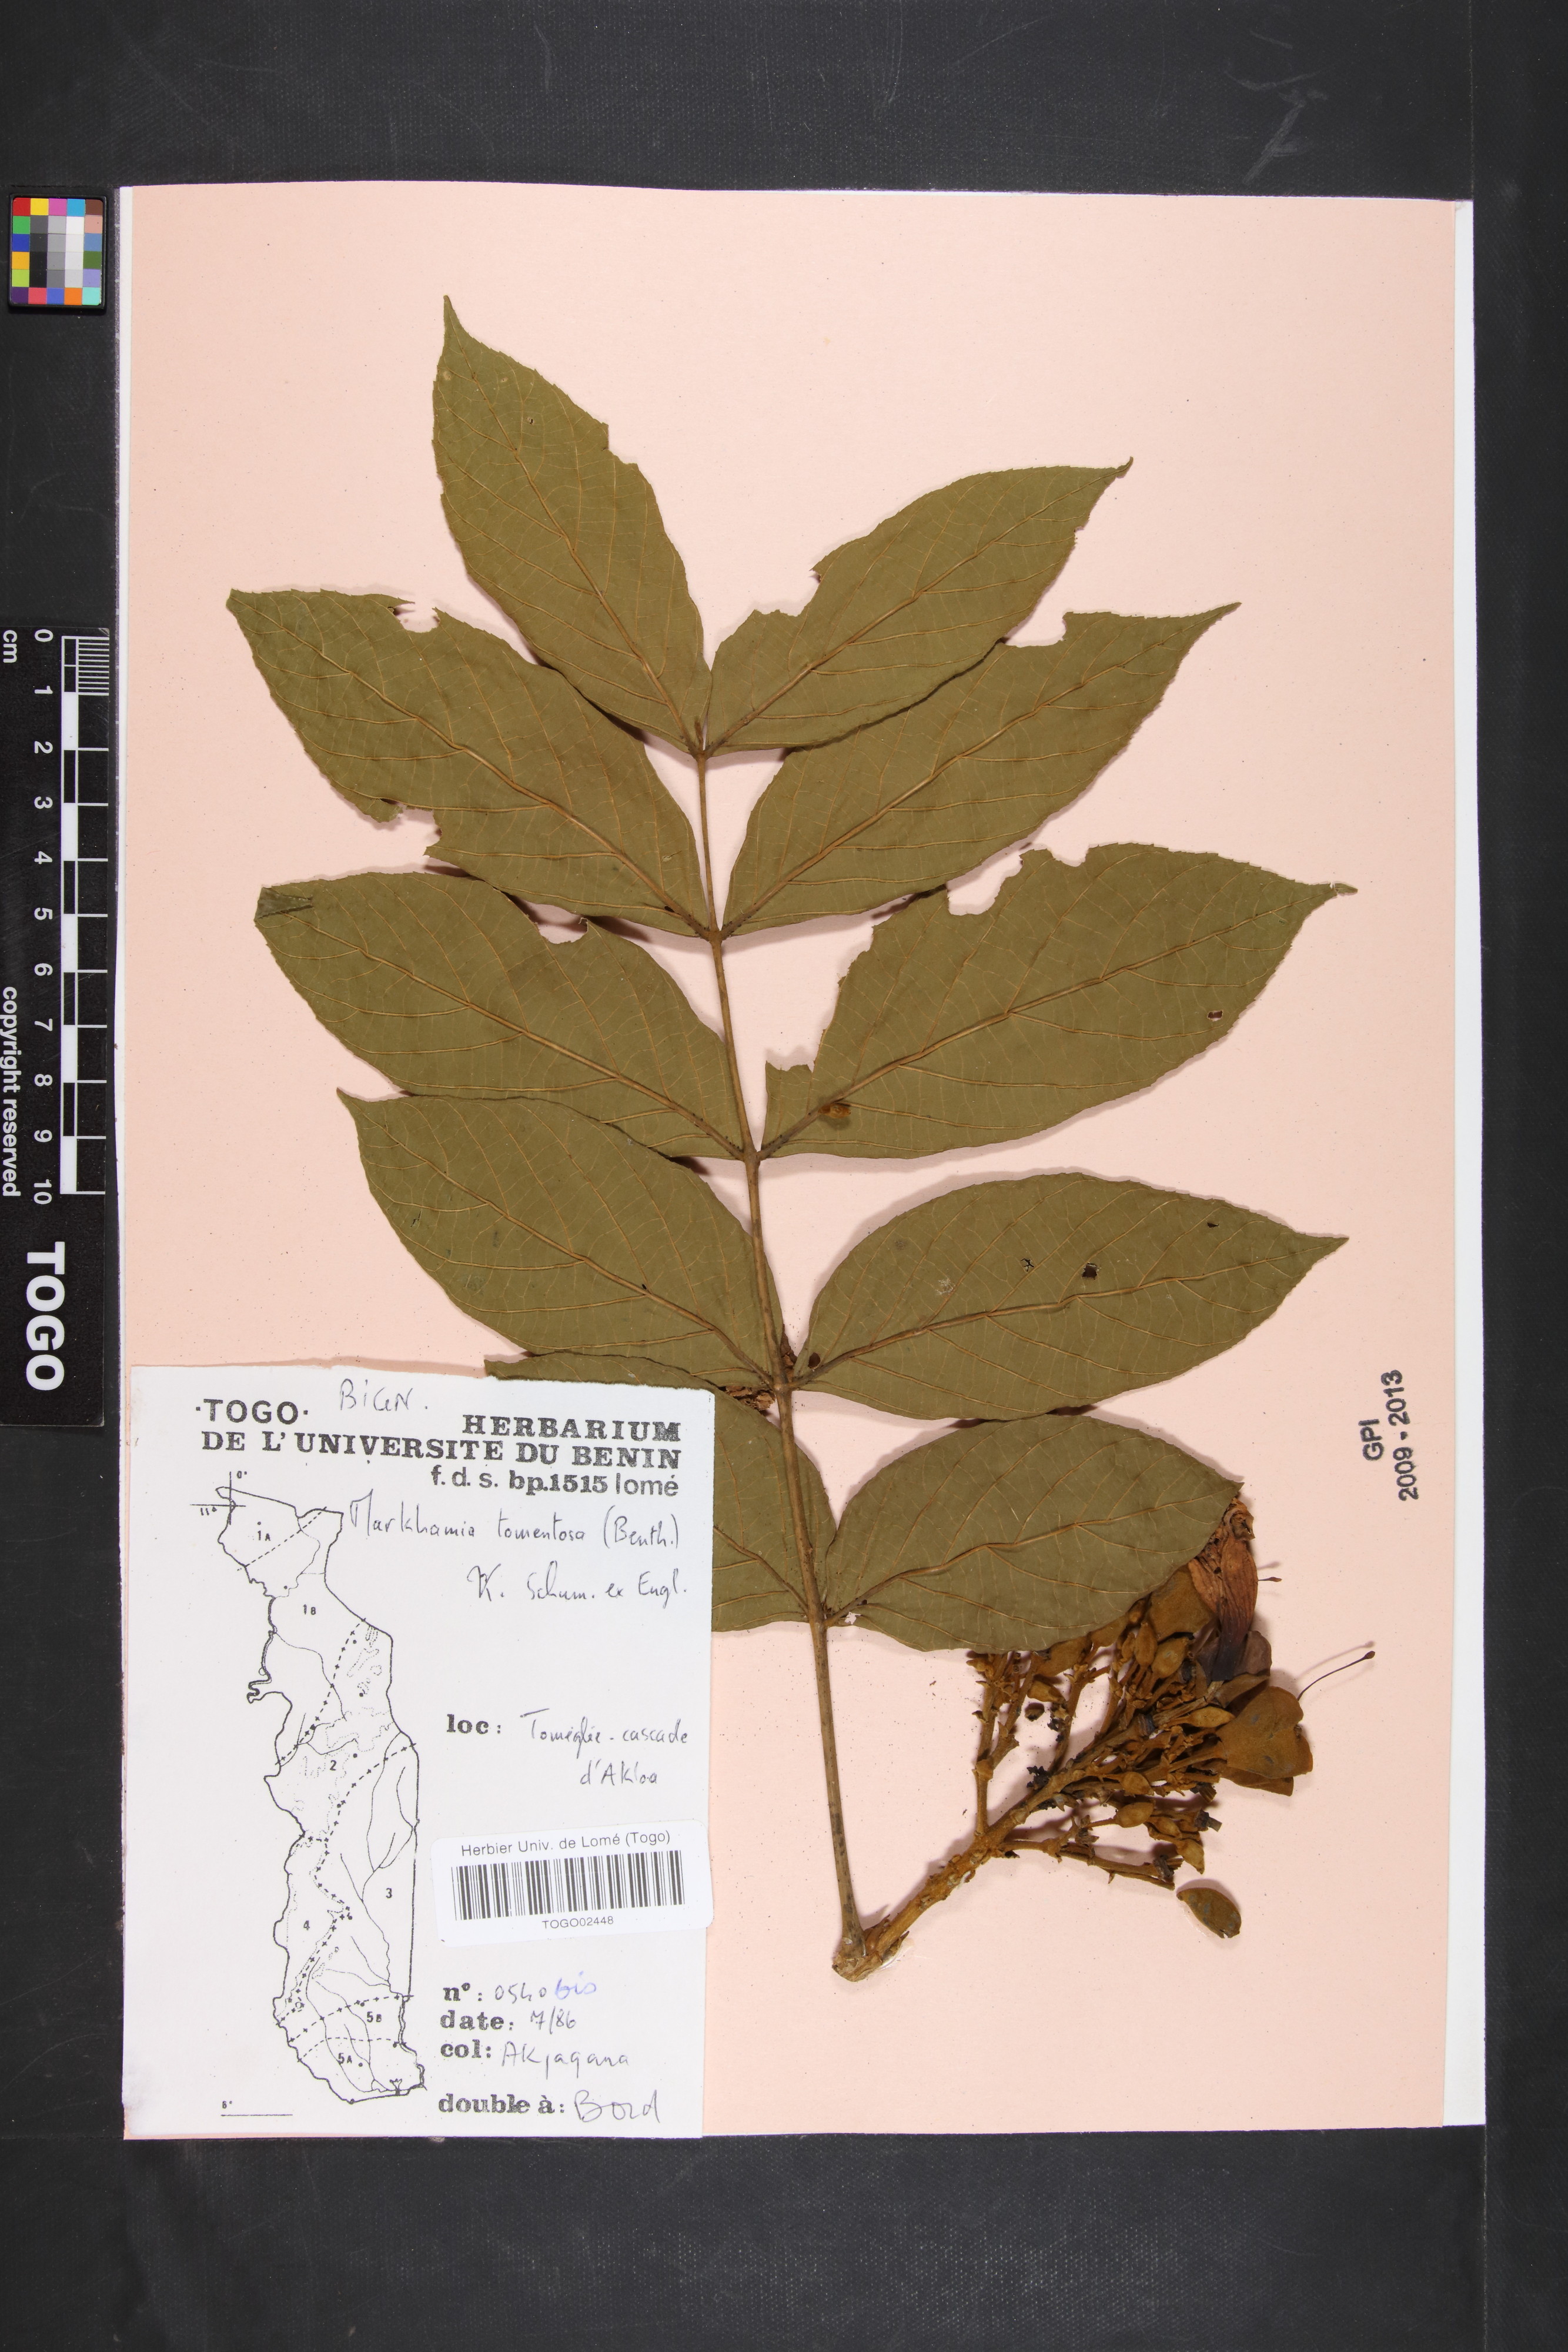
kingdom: Plantae
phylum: Tracheophyta
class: Magnoliopsida
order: Lamiales
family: Bignoniaceae
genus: Markhamia
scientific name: Markhamia tomentosa
